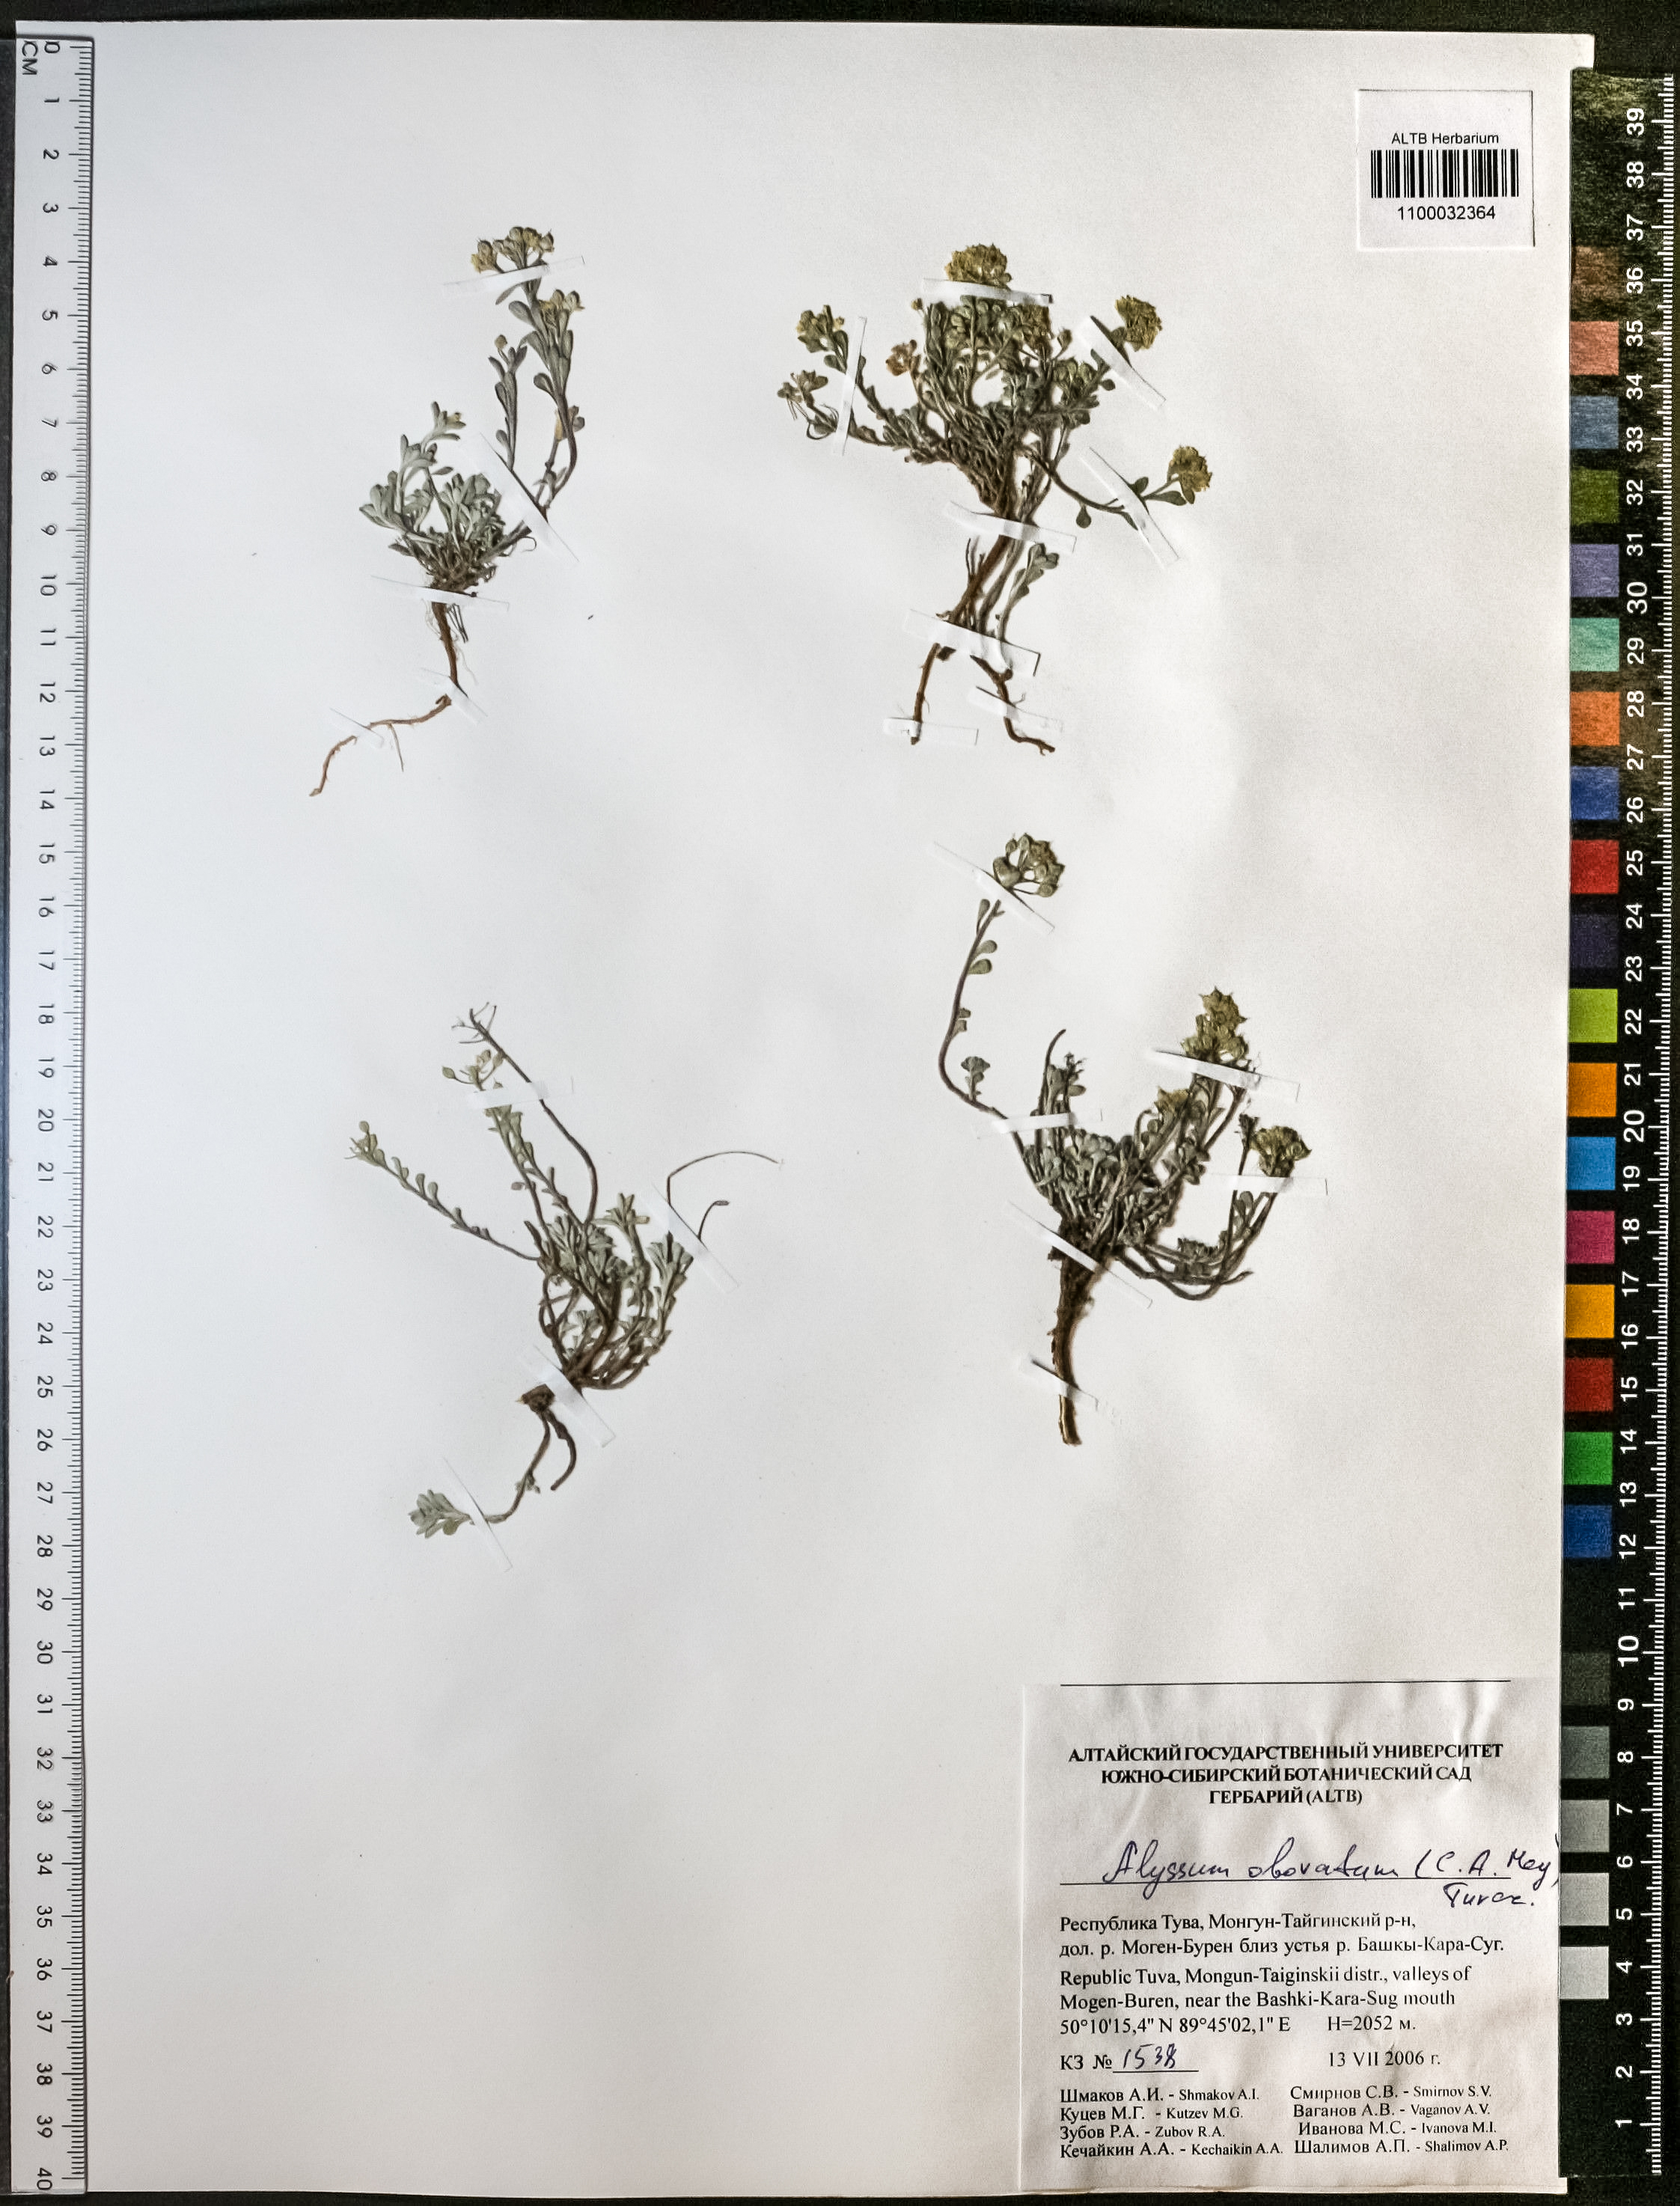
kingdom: Plantae
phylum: Tracheophyta
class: Magnoliopsida
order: Brassicales
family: Brassicaceae
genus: Odontarrhena
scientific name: Odontarrhena obovata
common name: American alyssum
